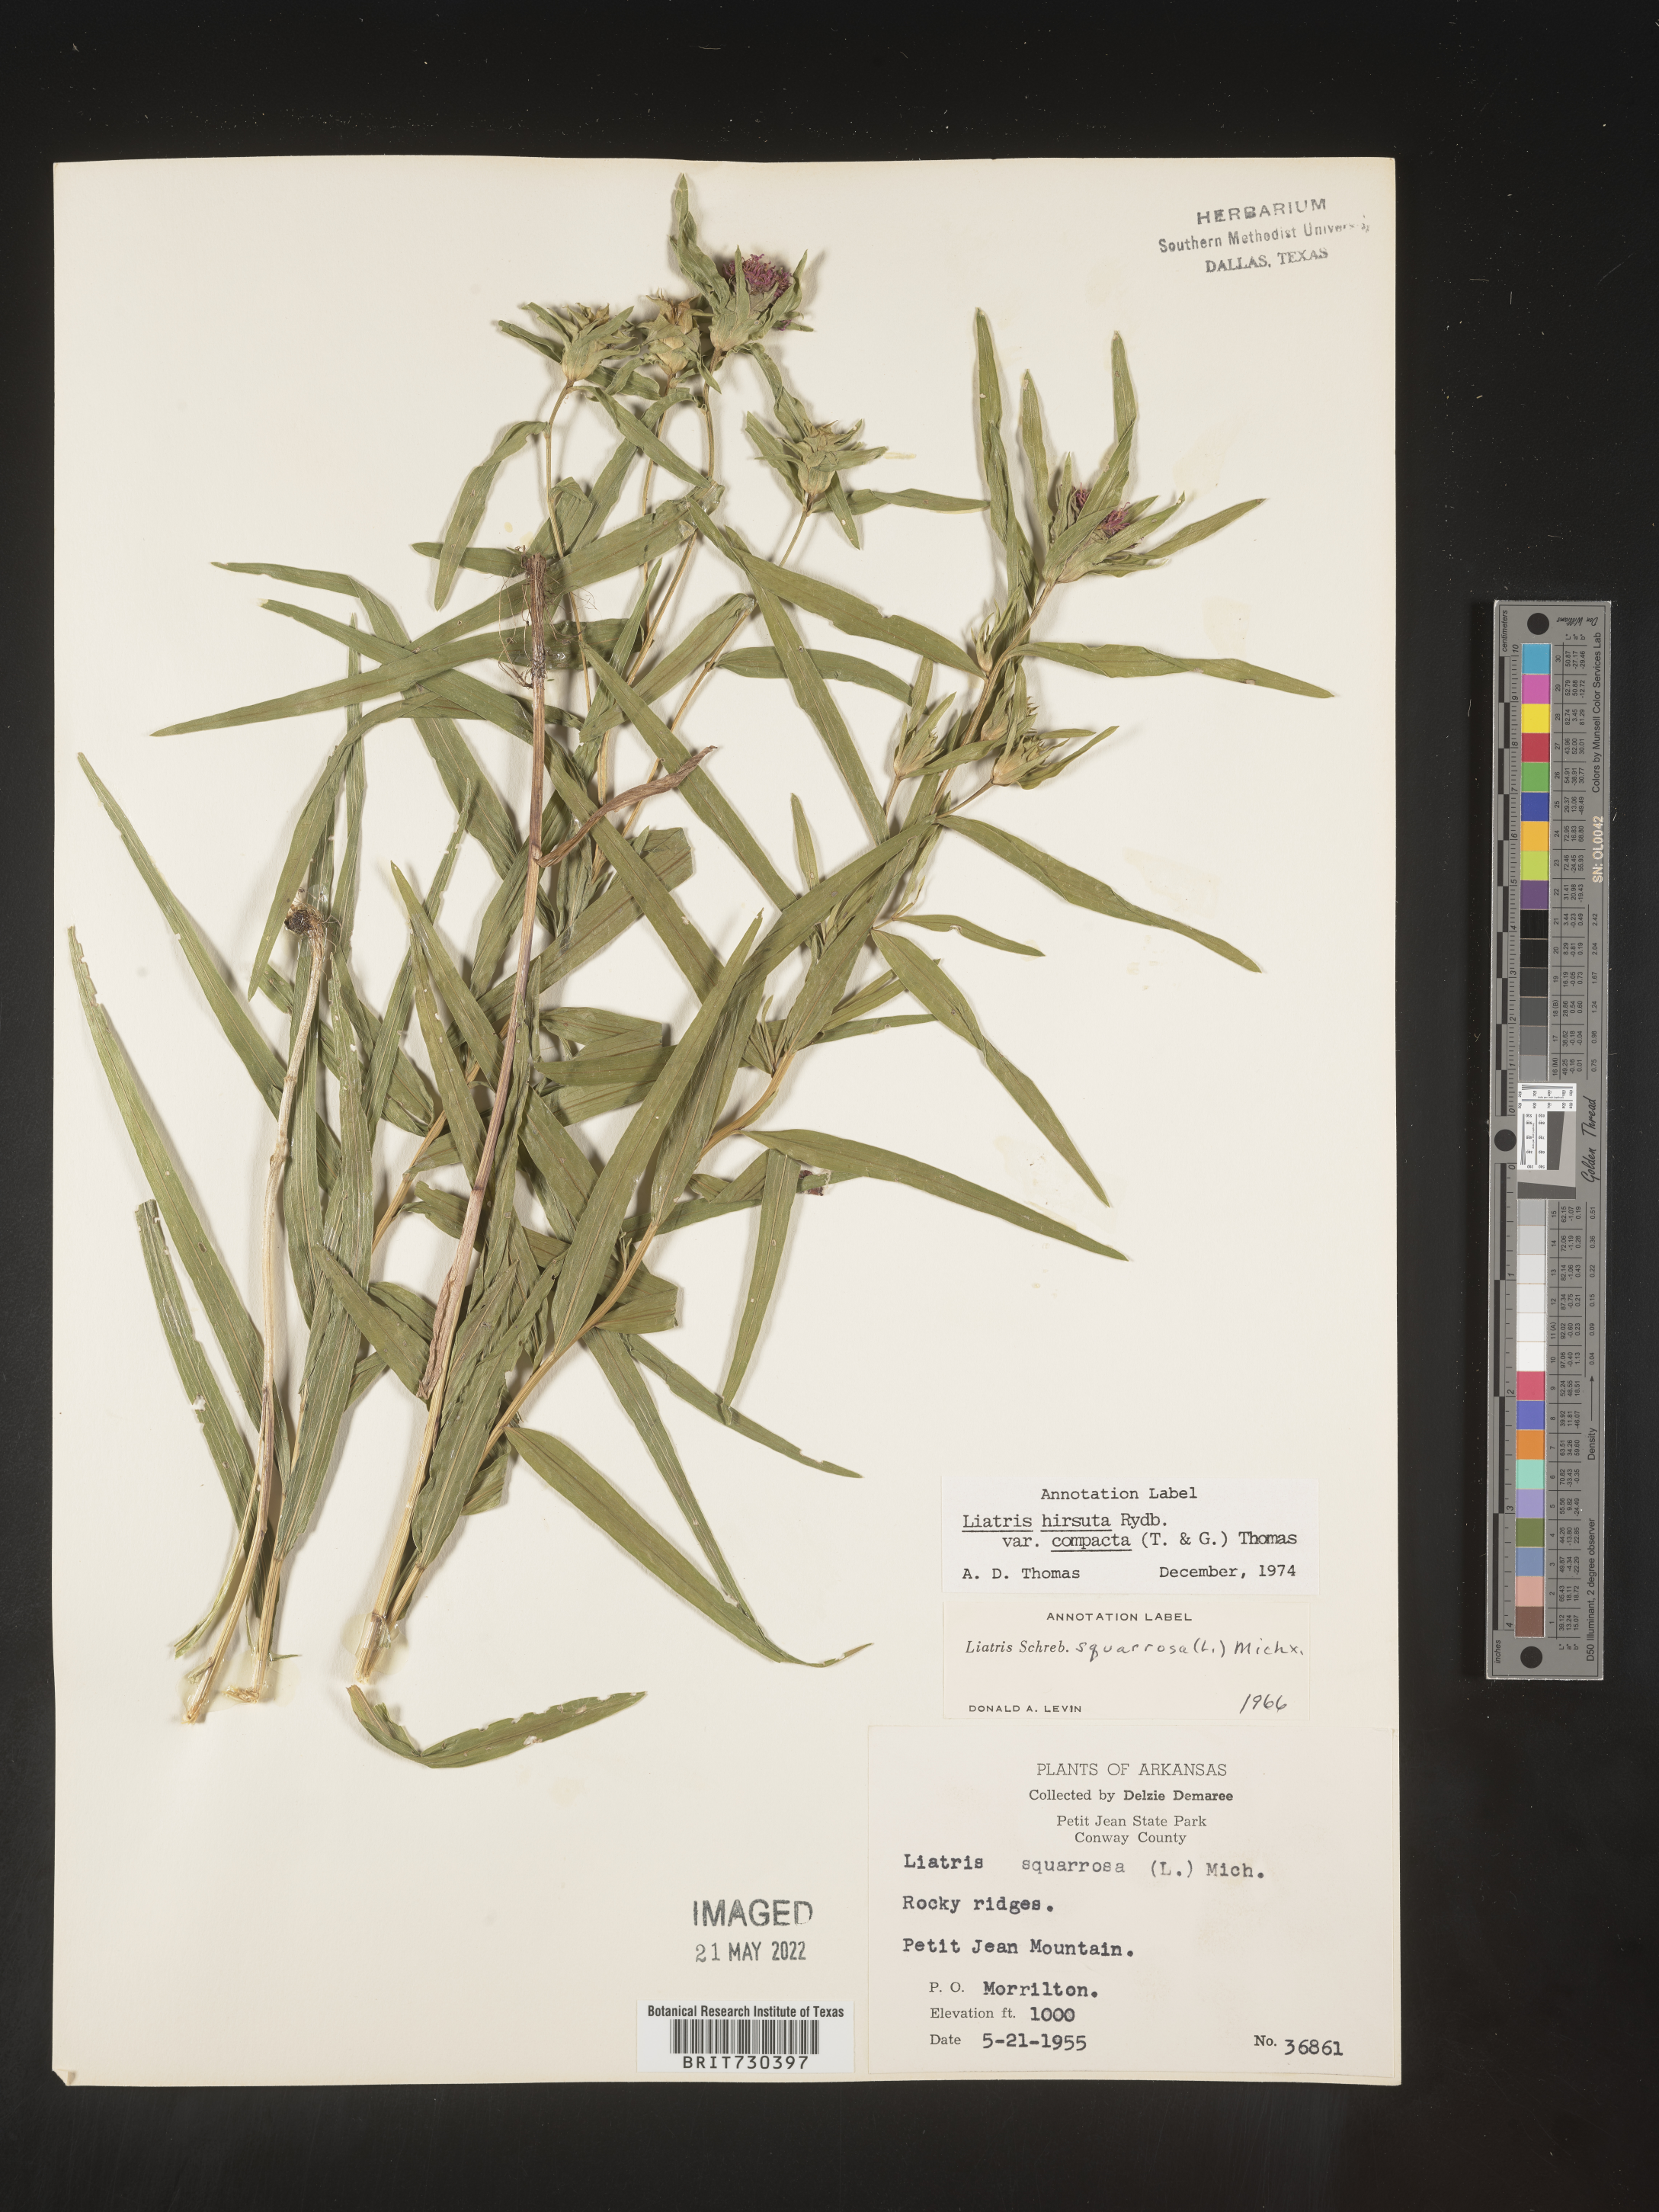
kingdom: Plantae
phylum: Tracheophyta
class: Magnoliopsida
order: Asterales
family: Asteraceae
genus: Liatris
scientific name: Liatris compacta
